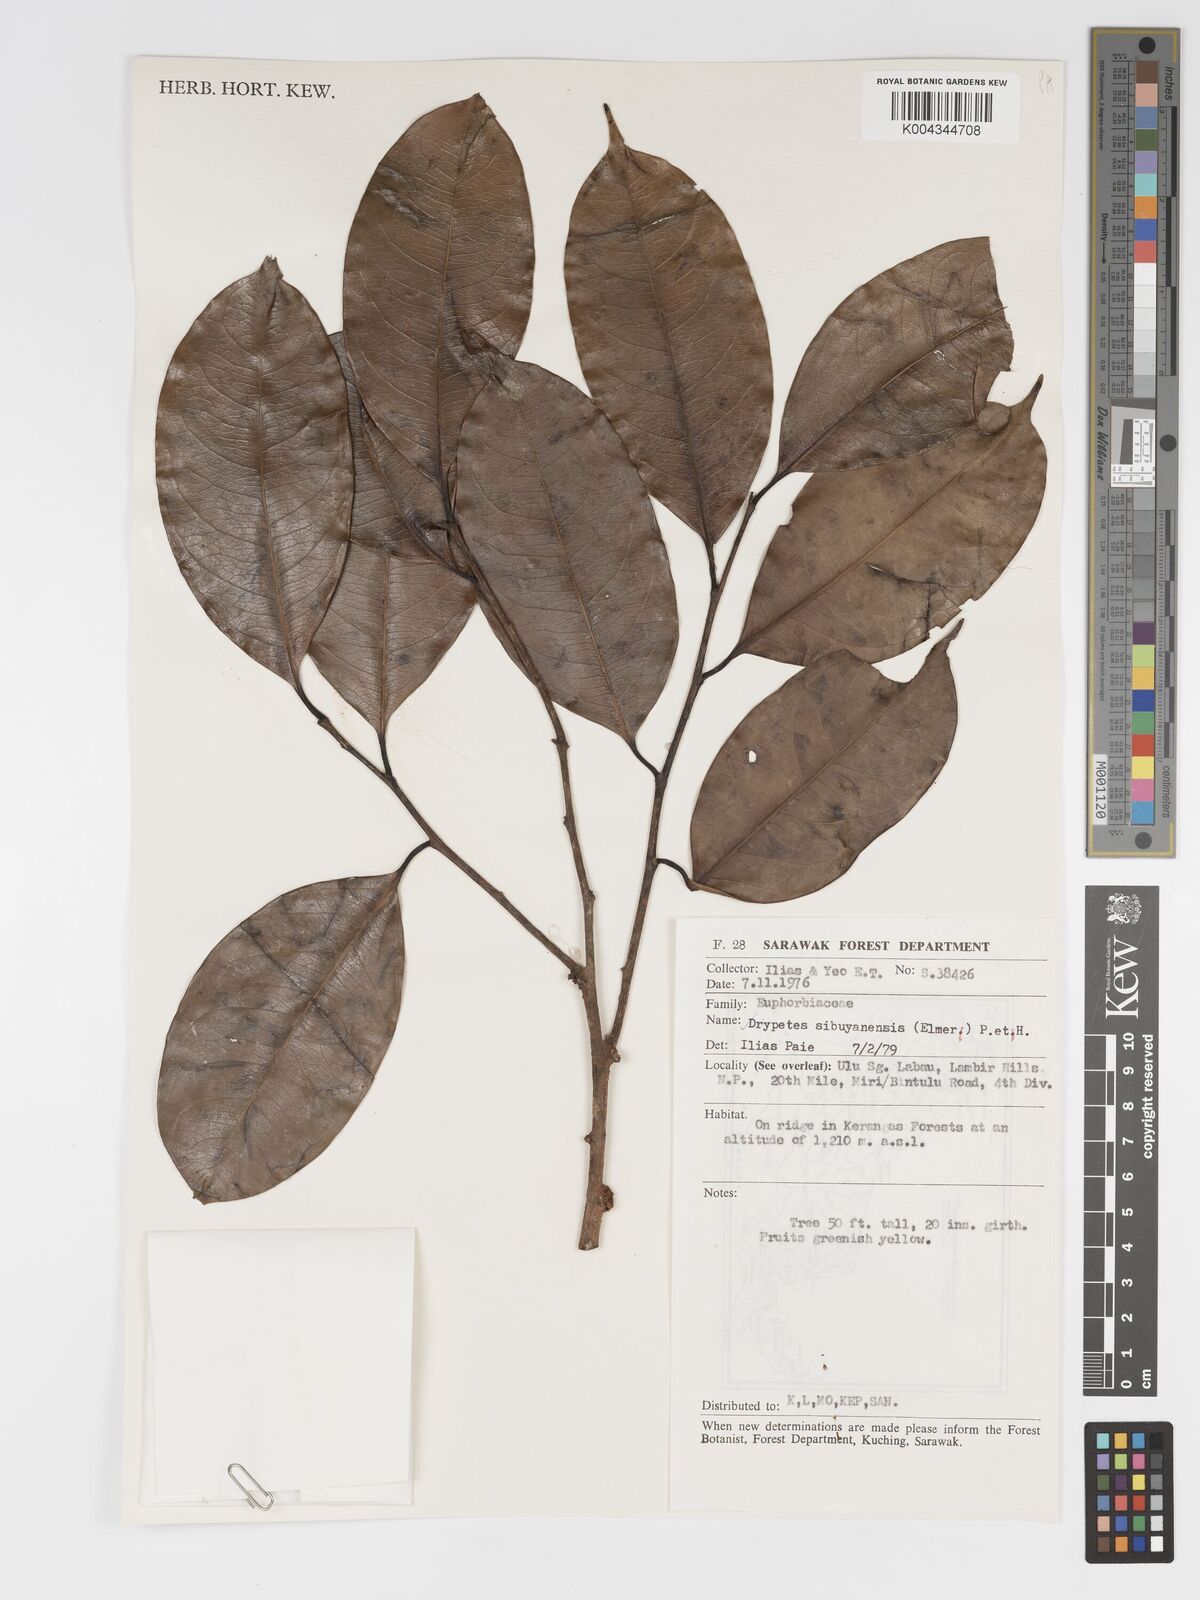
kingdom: Plantae
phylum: Tracheophyta
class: Magnoliopsida
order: Malpighiales
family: Putranjivaceae
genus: Drypetes
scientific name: Drypetes sibuyanensis
